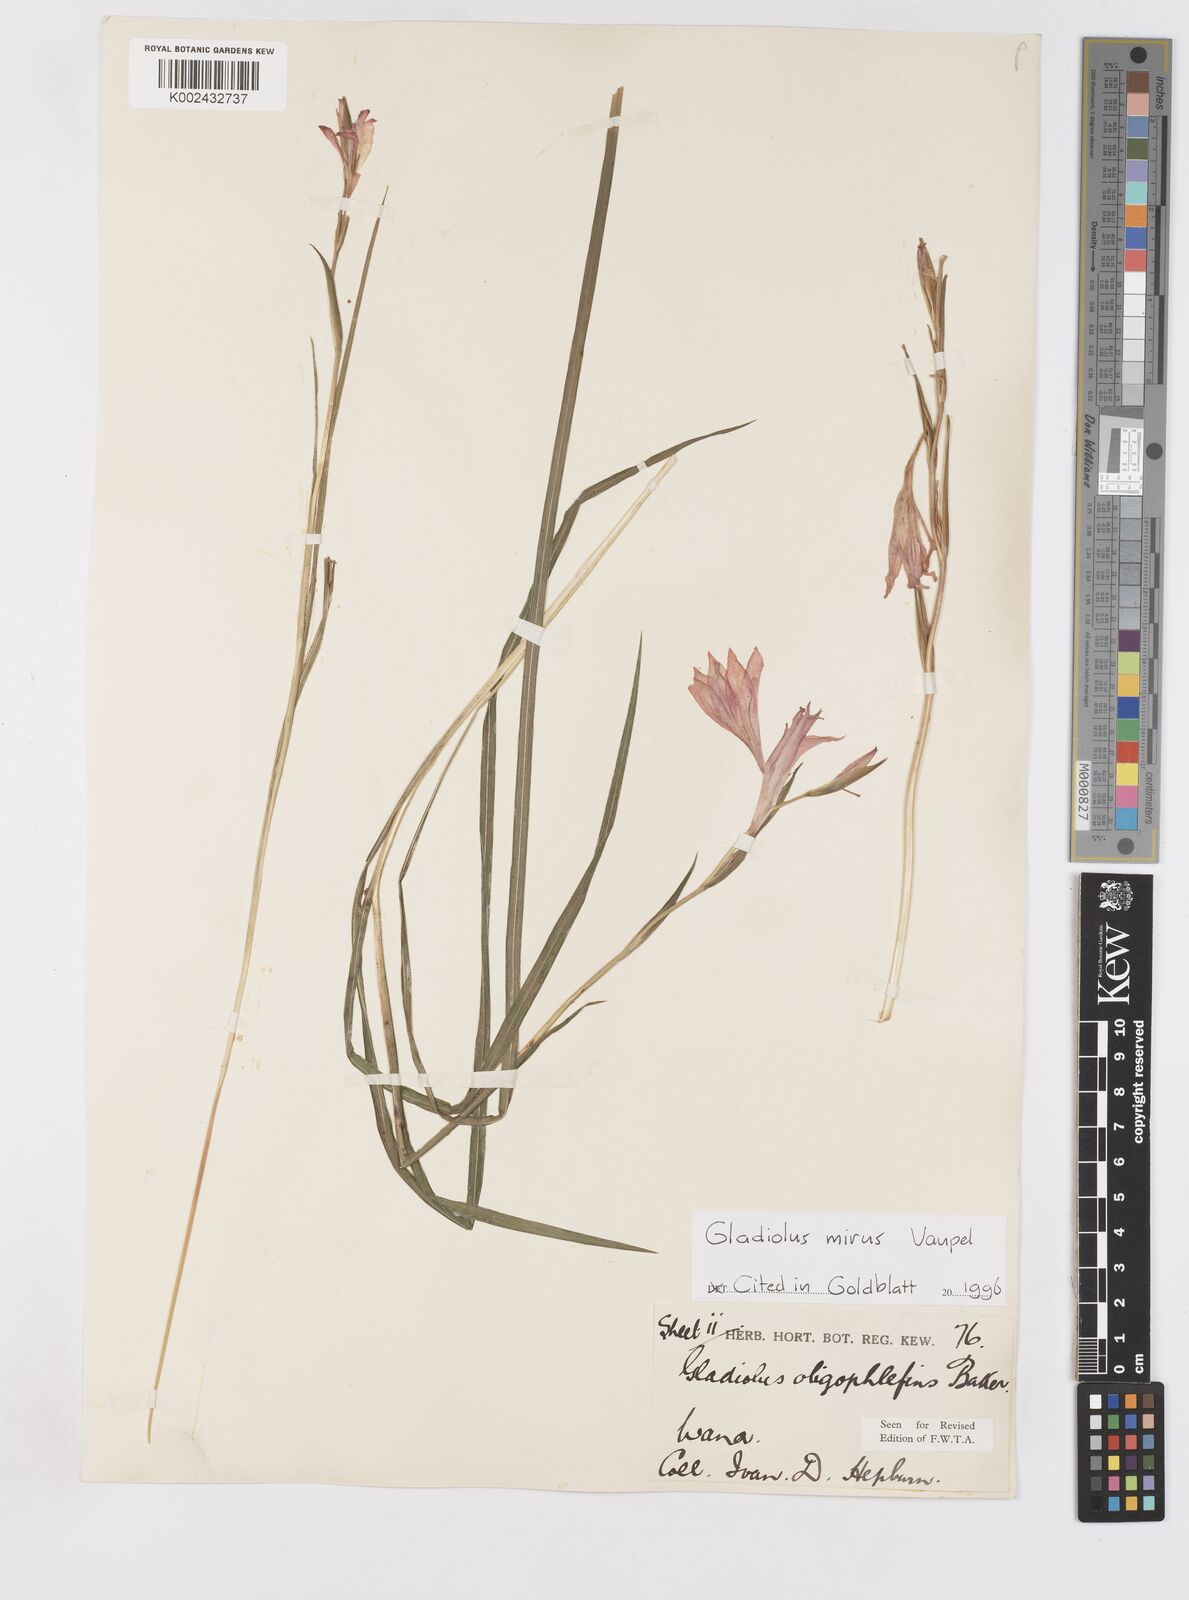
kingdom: Plantae
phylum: Tracheophyta
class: Liliopsida
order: Asparagales
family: Iridaceae
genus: Gladiolus
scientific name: Gladiolus mirus
